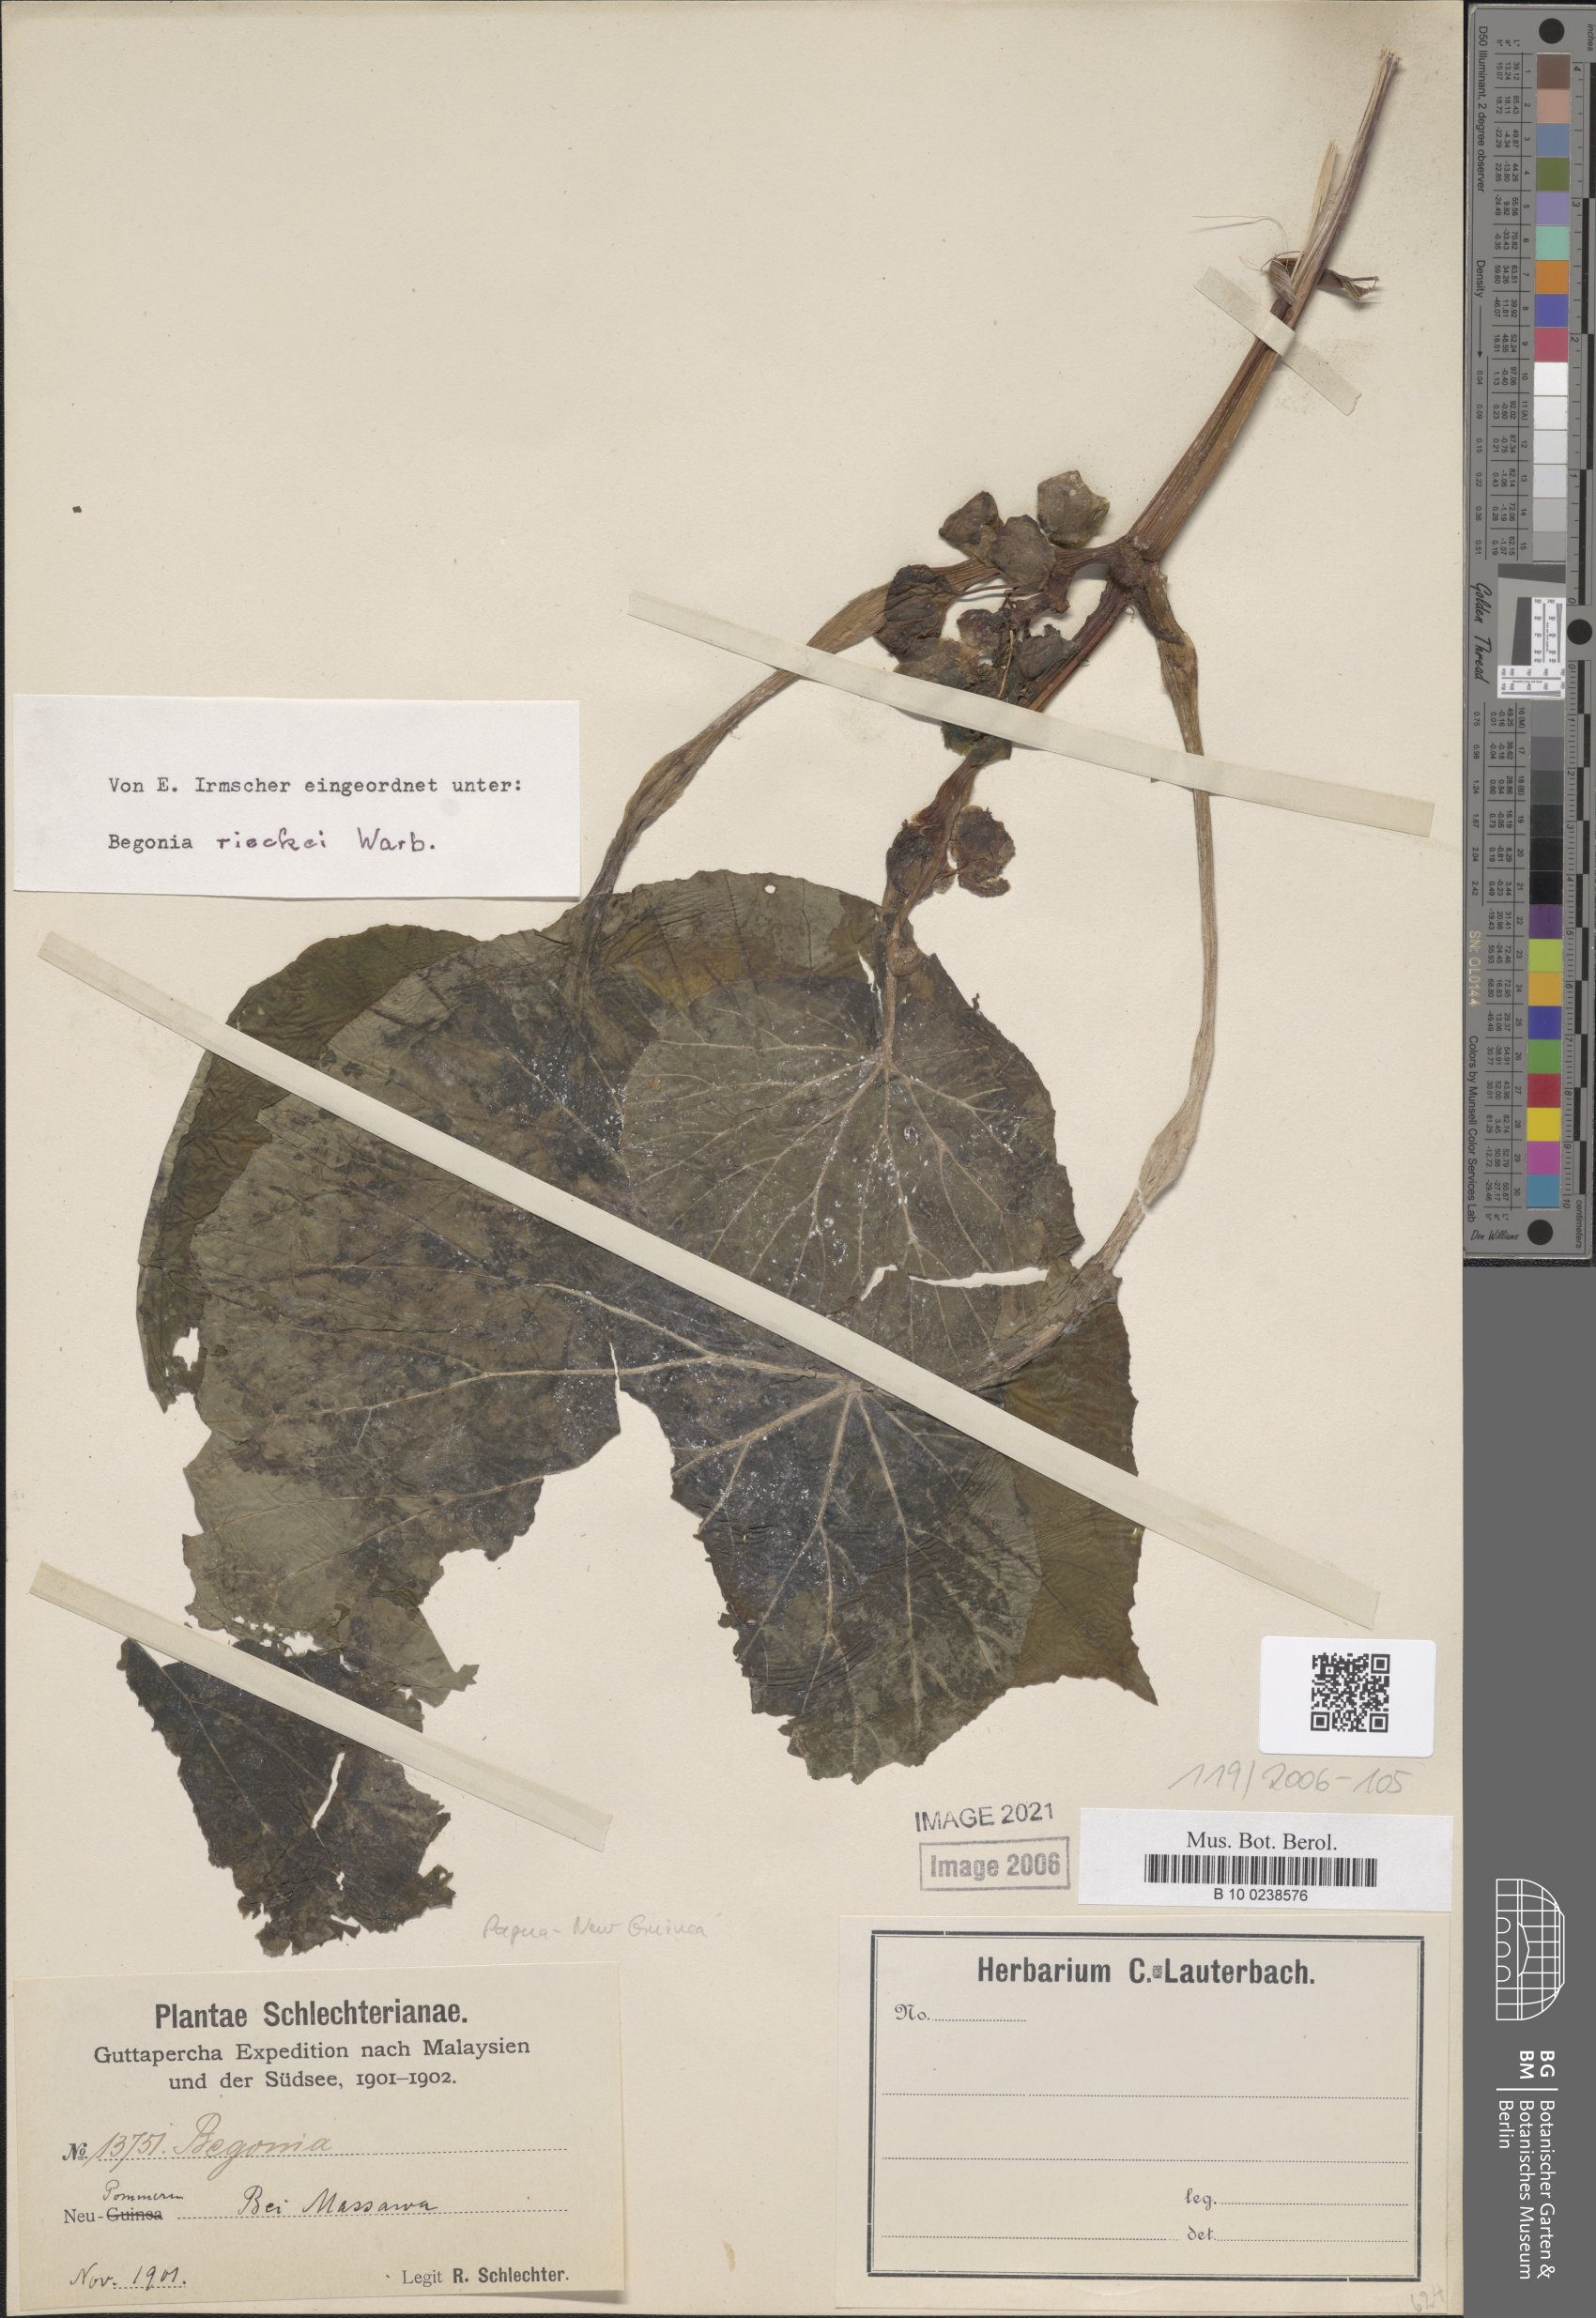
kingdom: Plantae
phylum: Tracheophyta
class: Magnoliopsida
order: Cucurbitales
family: Begoniaceae
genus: Begonia
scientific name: Begonia rieckei
